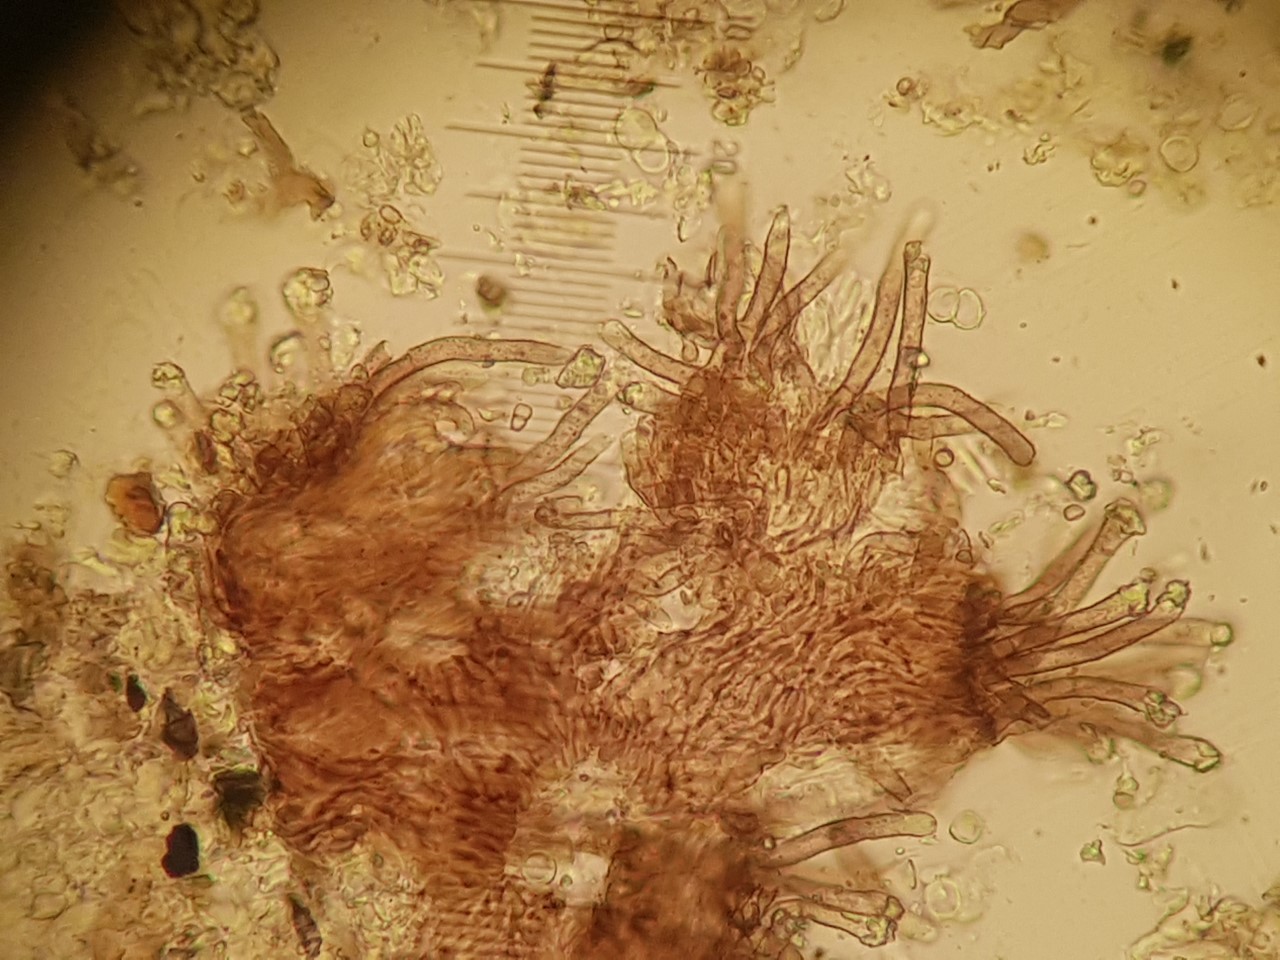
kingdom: Fungi
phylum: Ascomycota
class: Leotiomycetes
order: Helotiales
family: Lachnaceae
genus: Brunnipila
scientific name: Brunnipila
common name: frynseskive
